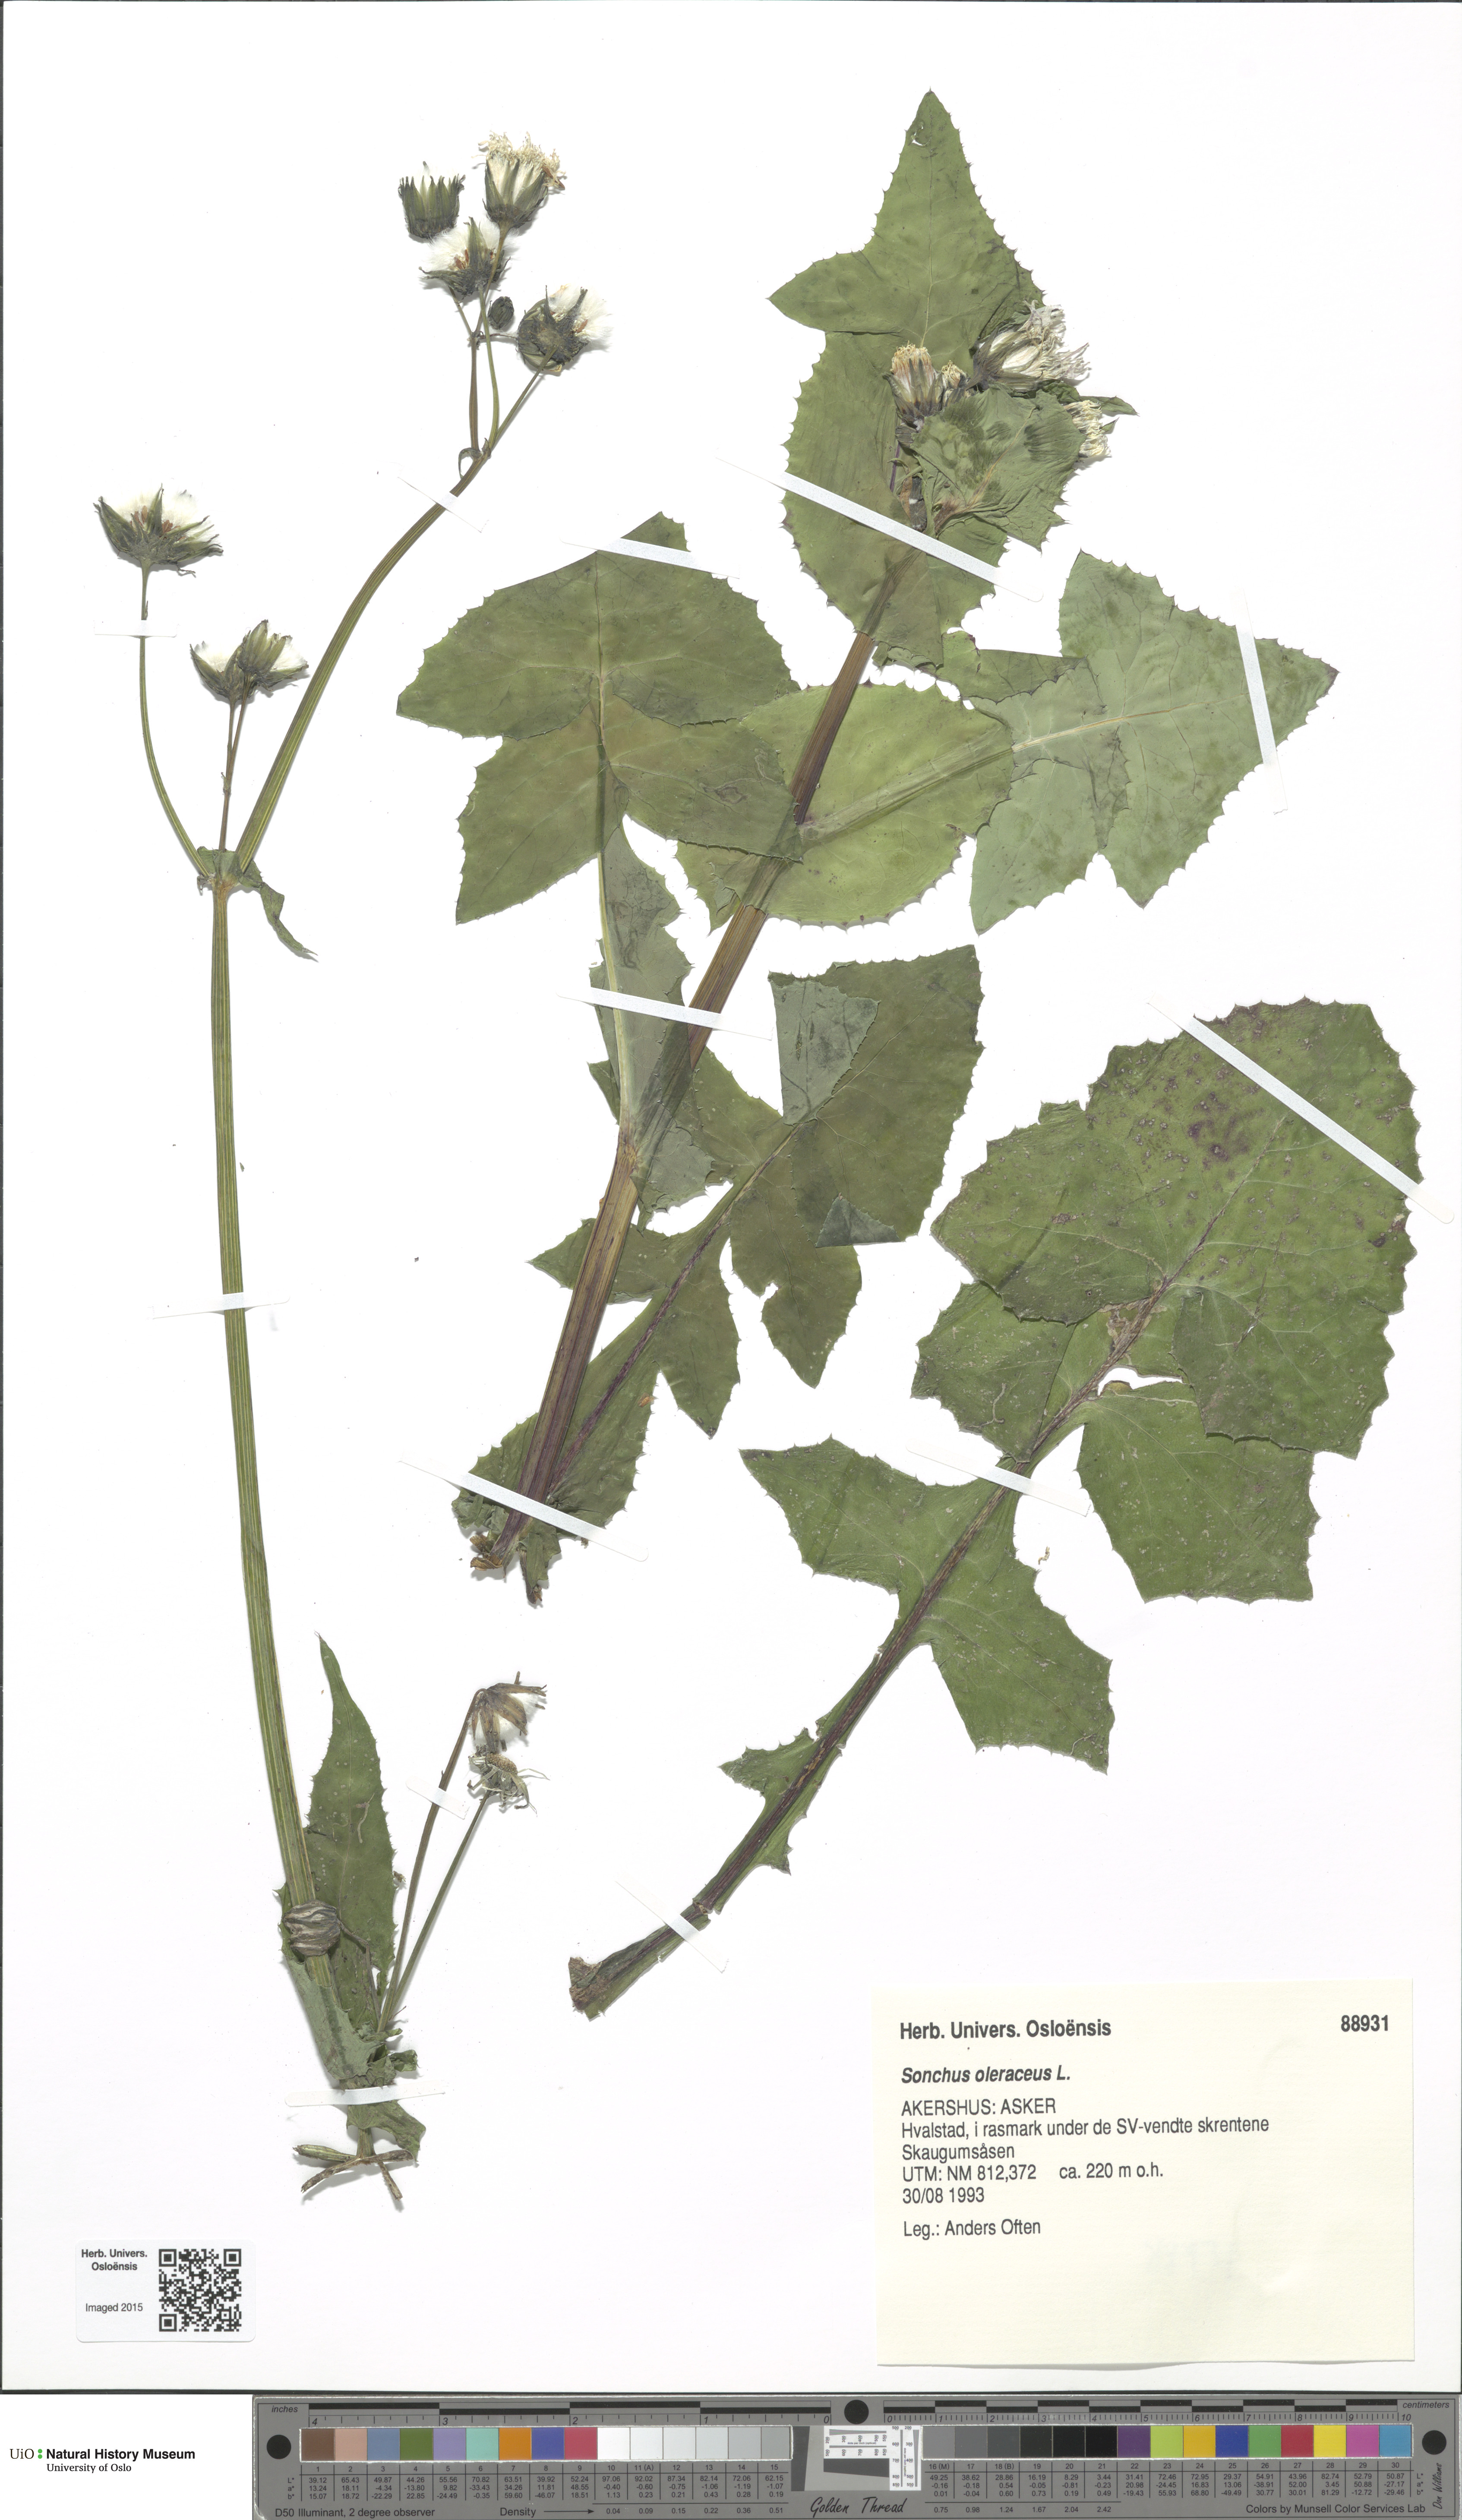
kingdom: Plantae
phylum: Tracheophyta
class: Magnoliopsida
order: Asterales
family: Asteraceae
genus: Sonchus
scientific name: Sonchus oleraceus
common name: Common sowthistle
